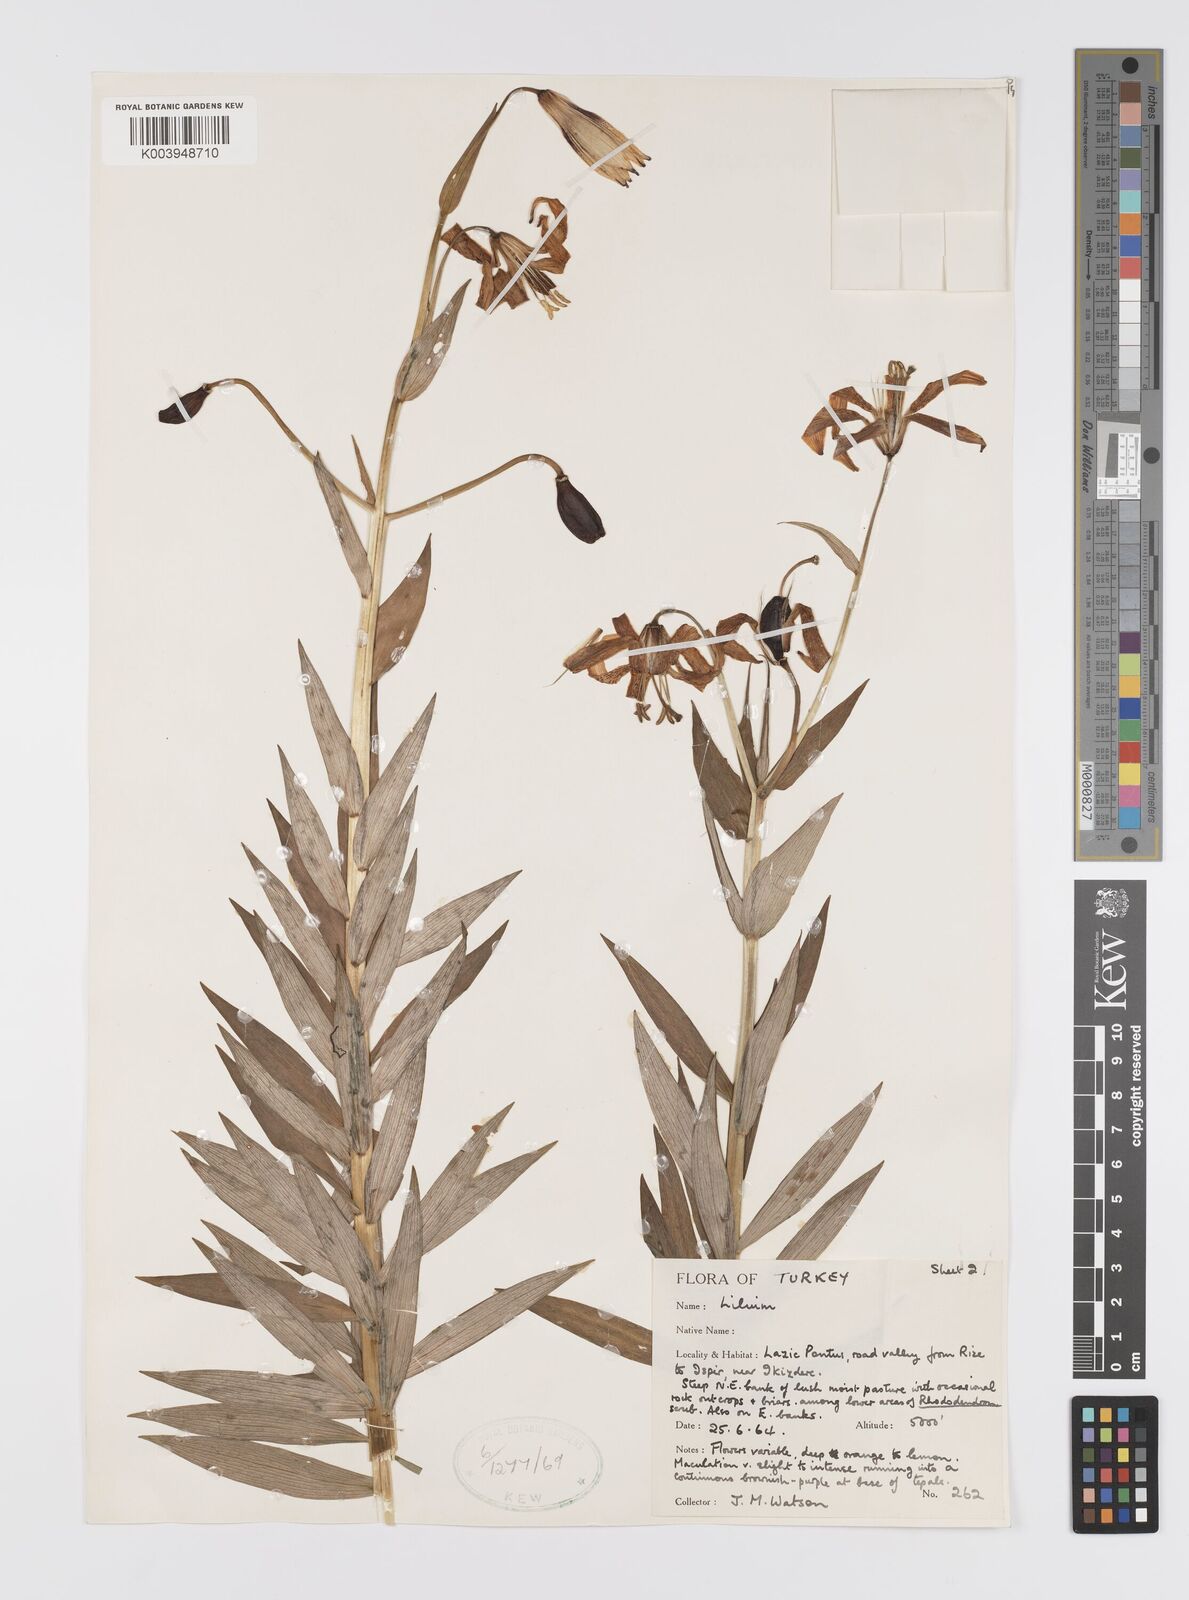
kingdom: Plantae
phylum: Tracheophyta
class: Liliopsida
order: Liliales
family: Liliaceae
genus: Lilium
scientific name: Lilium ponticum
